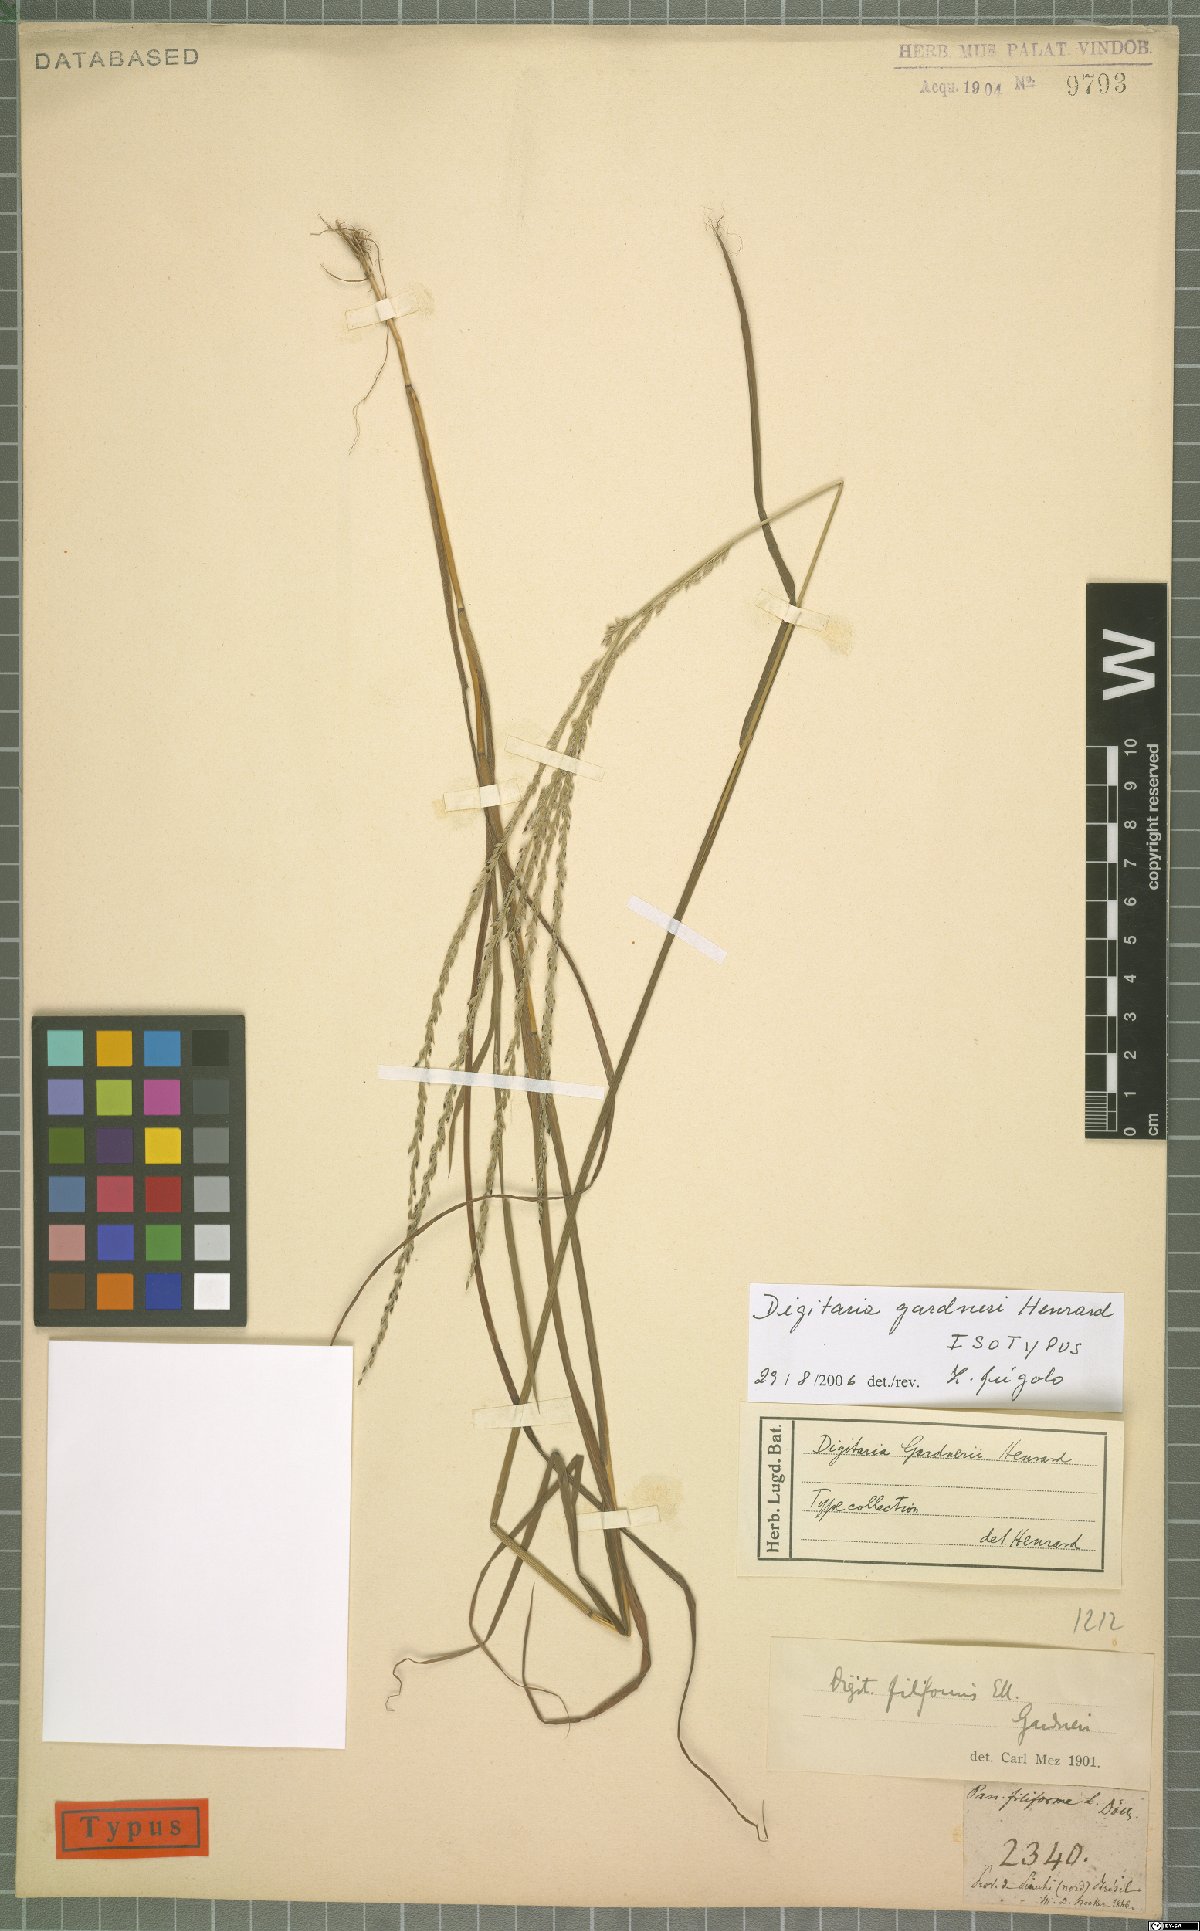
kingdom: Plantae
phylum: Tracheophyta
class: Liliopsida
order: Poales
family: Poaceae
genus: Digitaria
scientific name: Digitaria gardneri
